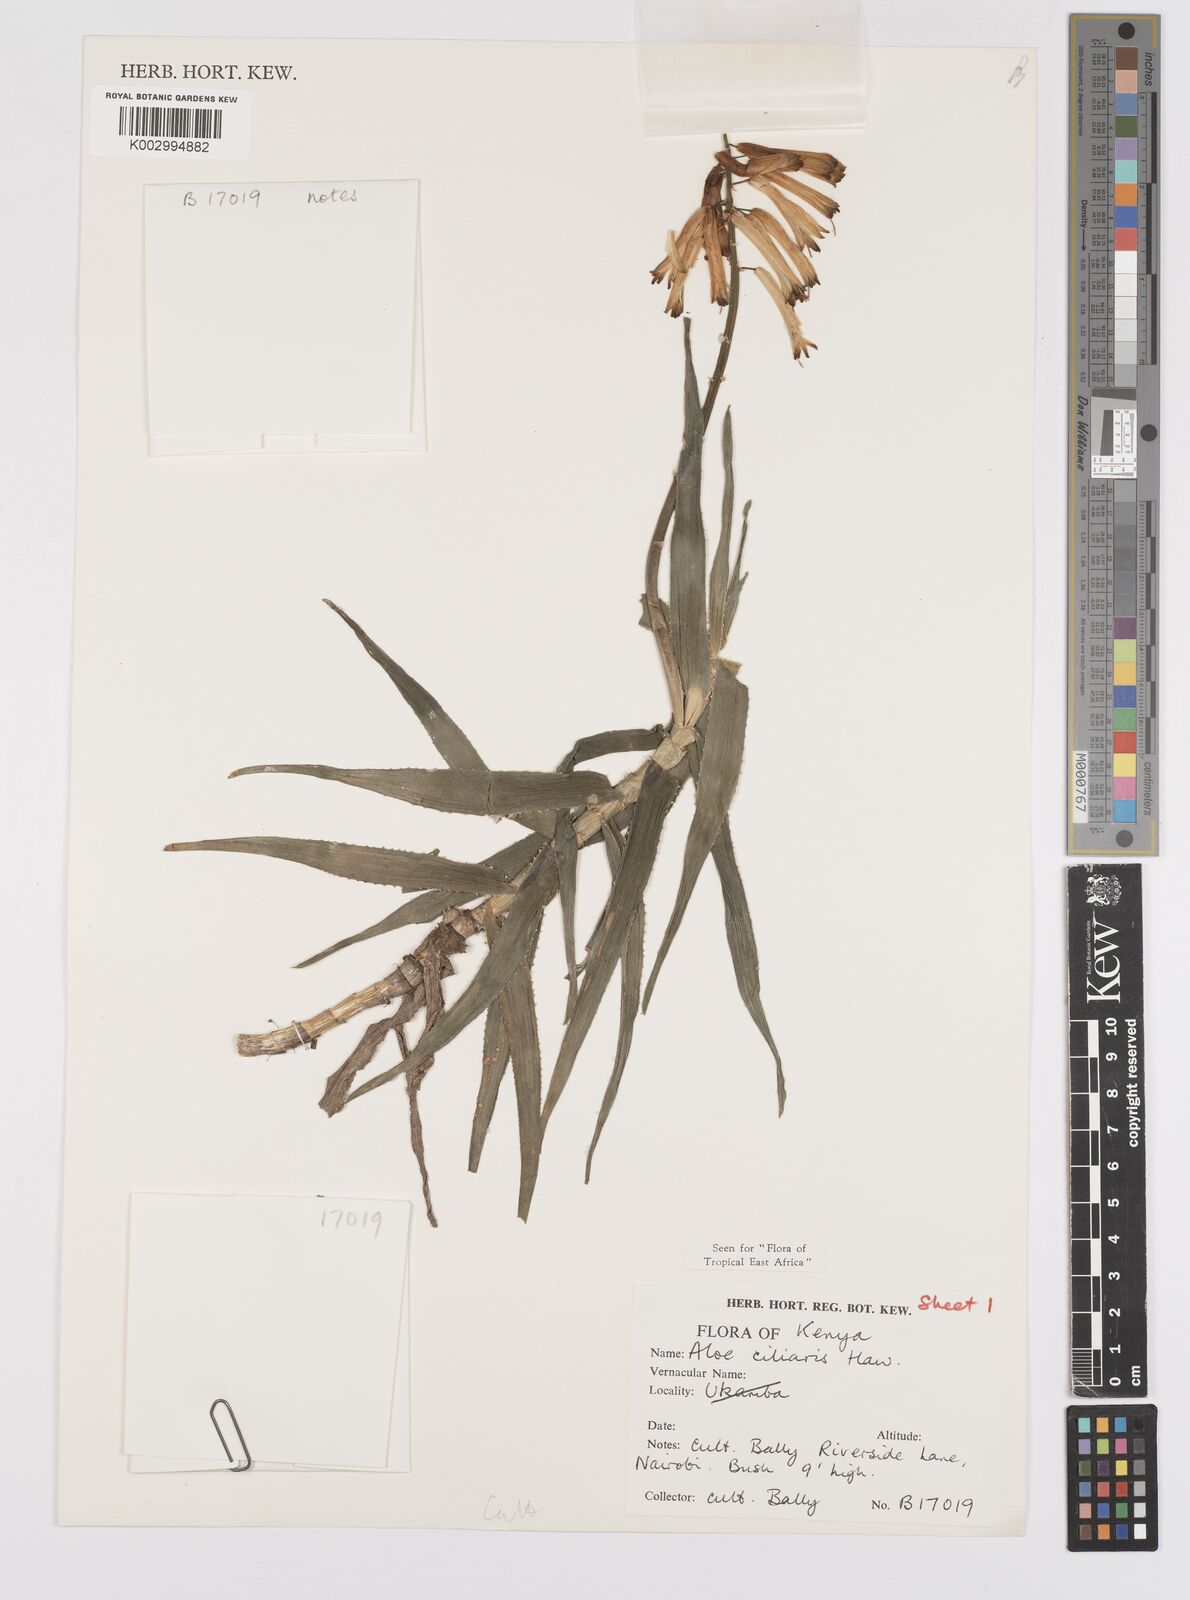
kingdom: Plantae
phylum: Tracheophyta
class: Liliopsida
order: Asparagales
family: Asphodelaceae
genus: Aloe
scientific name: Aloe citrina
